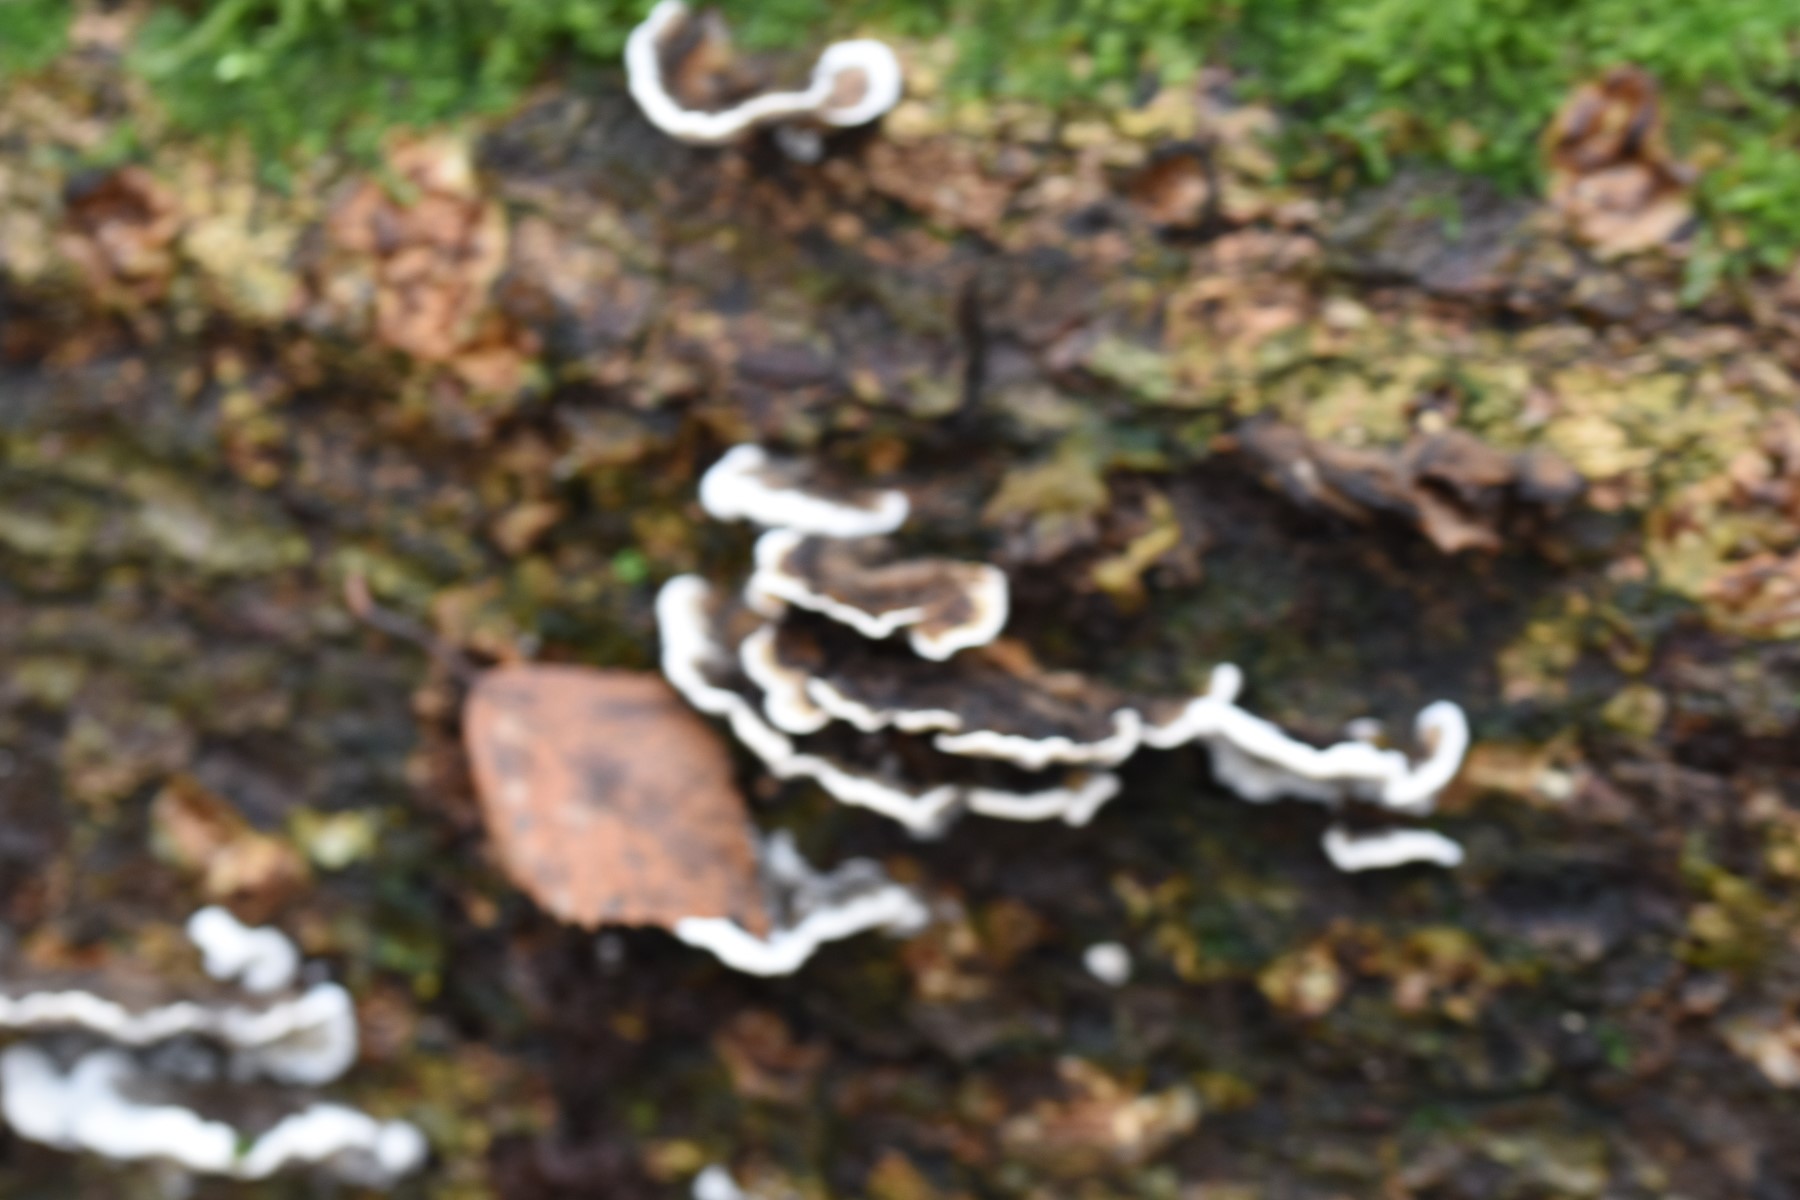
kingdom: Fungi
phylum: Basidiomycota
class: Agaricomycetes
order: Polyporales
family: Phanerochaetaceae
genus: Bjerkandera
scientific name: Bjerkandera adusta
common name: sveden sodporesvamp
